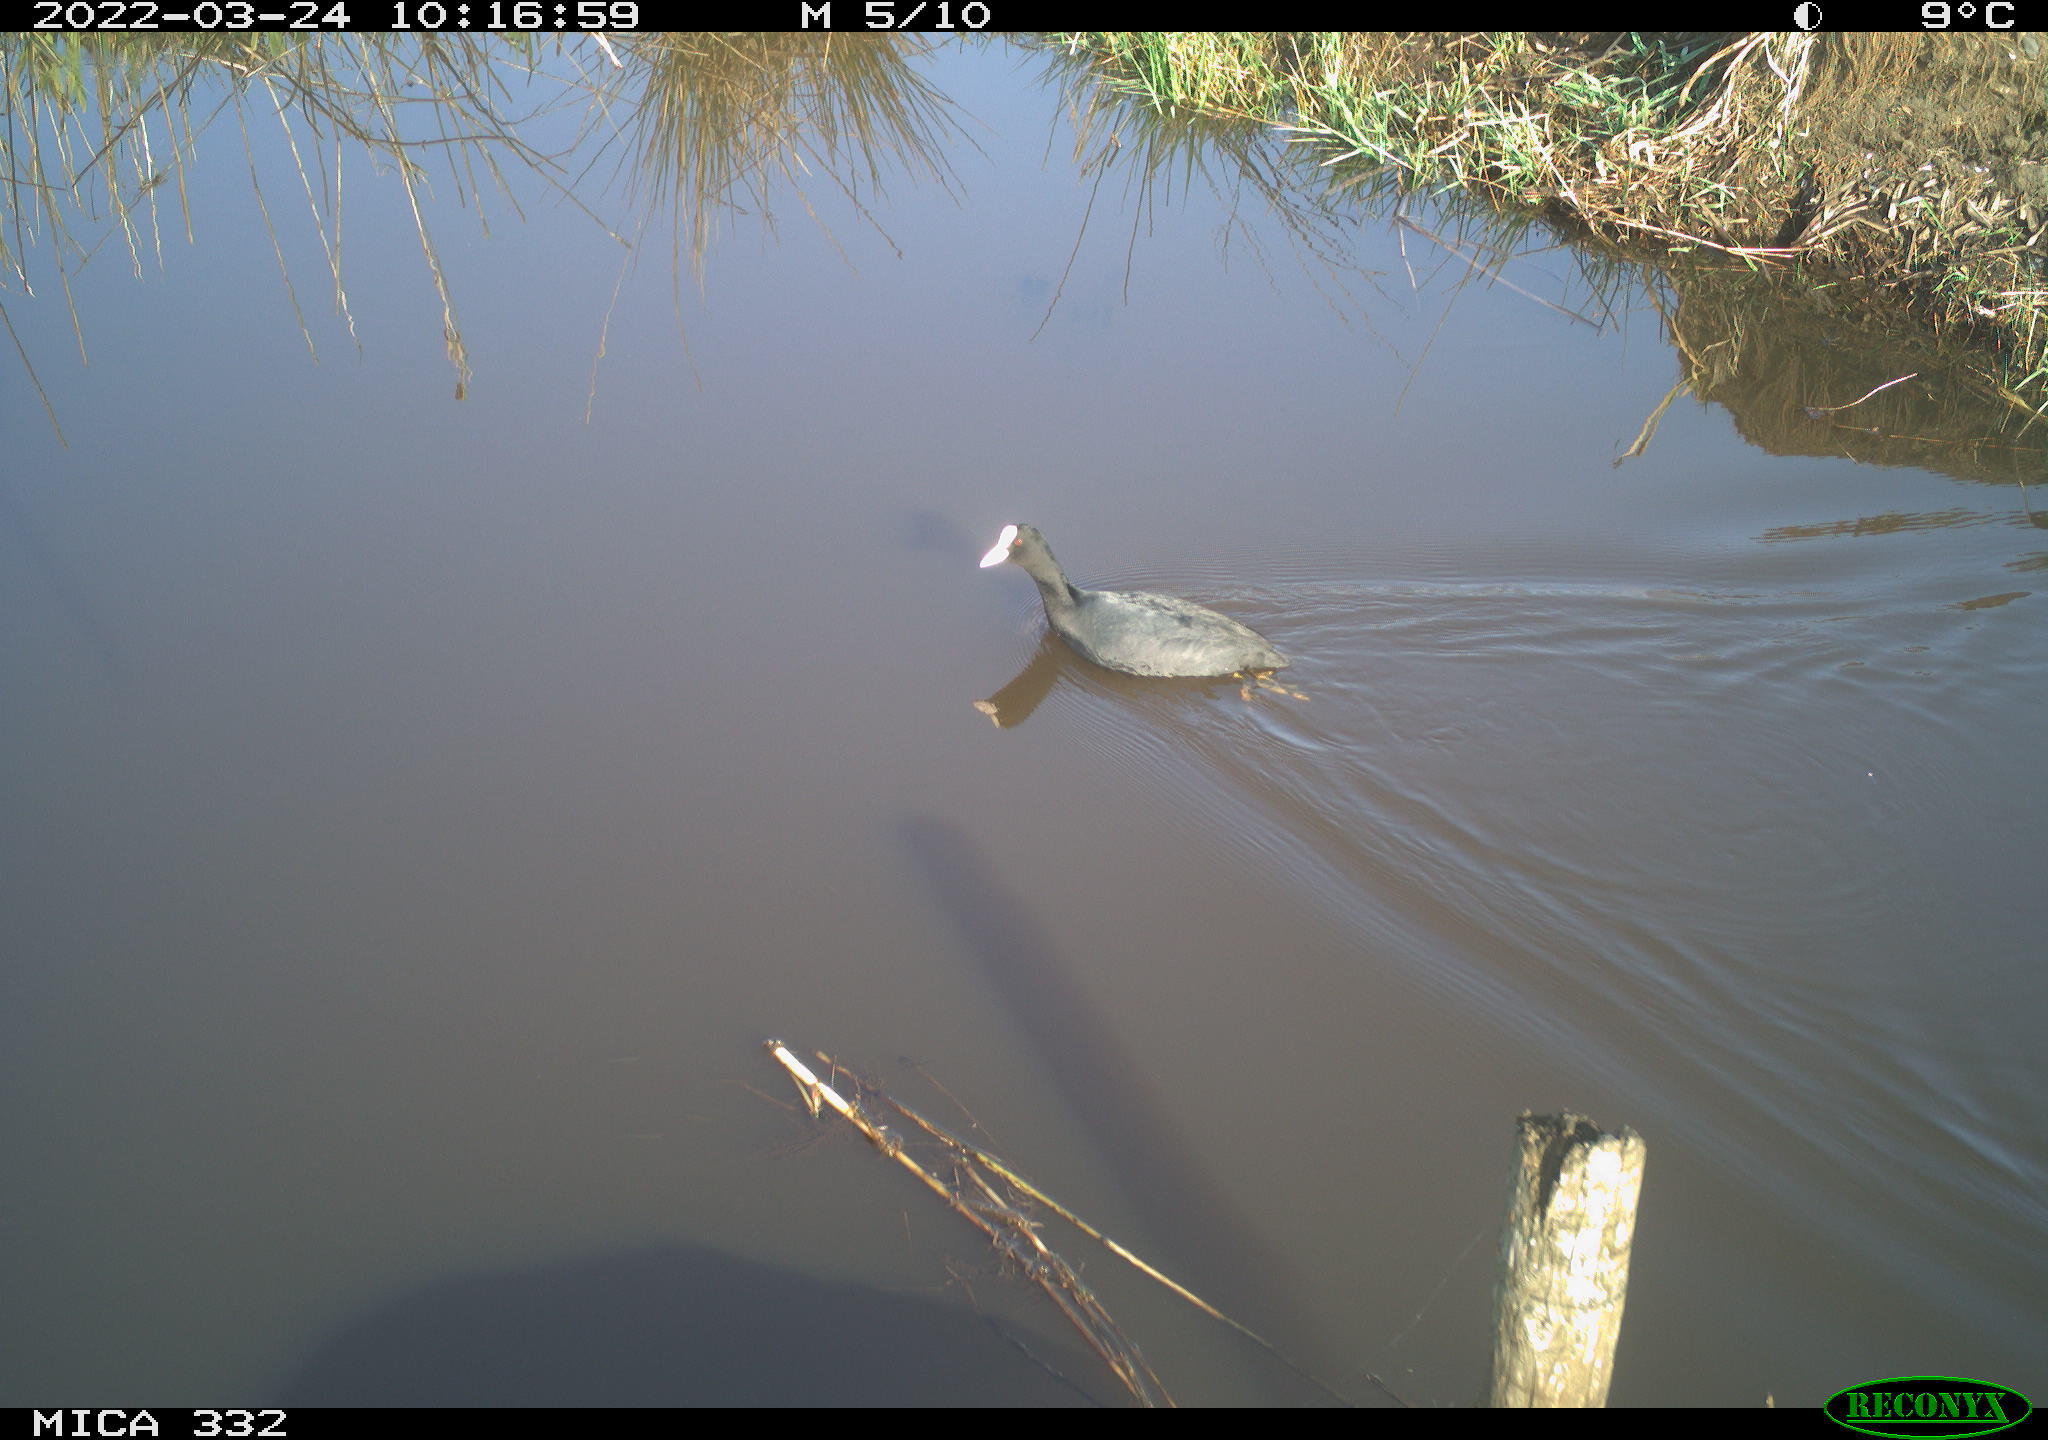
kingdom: Animalia
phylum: Chordata
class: Aves
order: Gruiformes
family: Rallidae
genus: Fulica
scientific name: Fulica atra
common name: Eurasian coot
